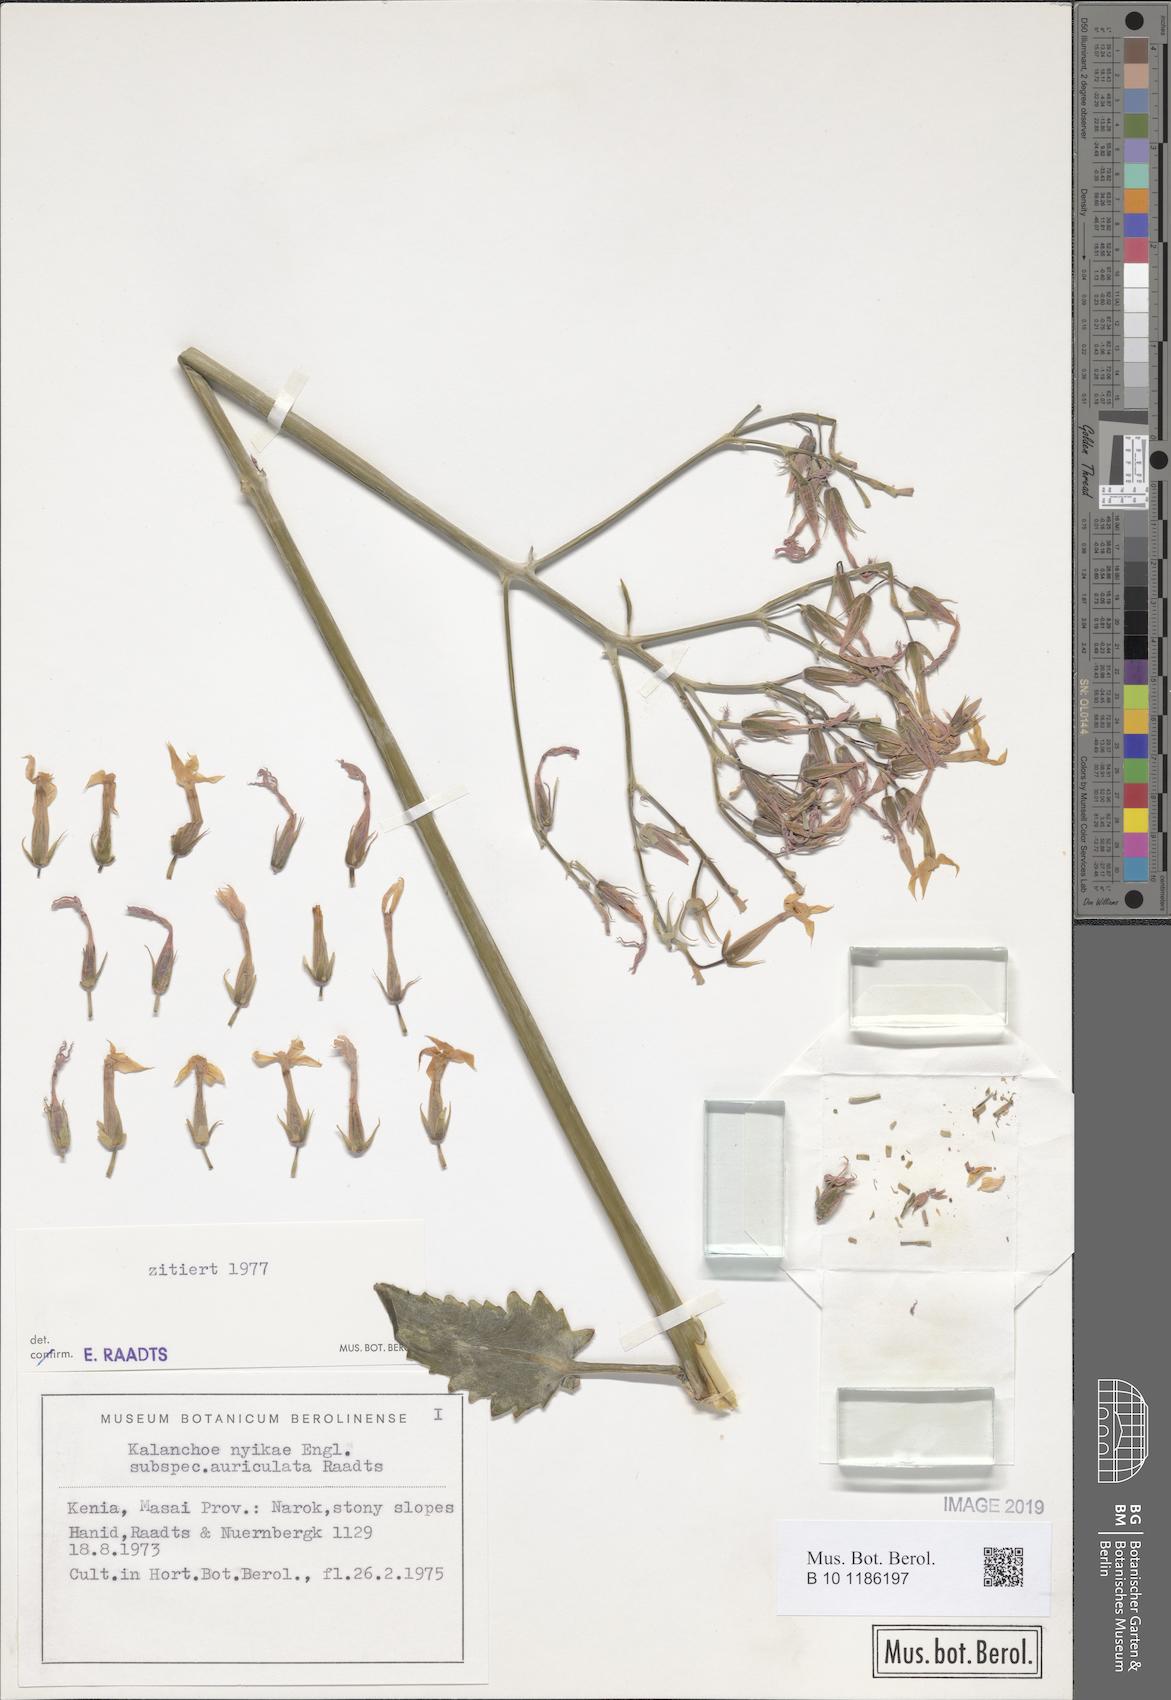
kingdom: Plantae
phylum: Tracheophyta
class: Magnoliopsida
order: Saxifragales
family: Crassulaceae
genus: Kalanchoe
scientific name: Kalanchoe auriculata
